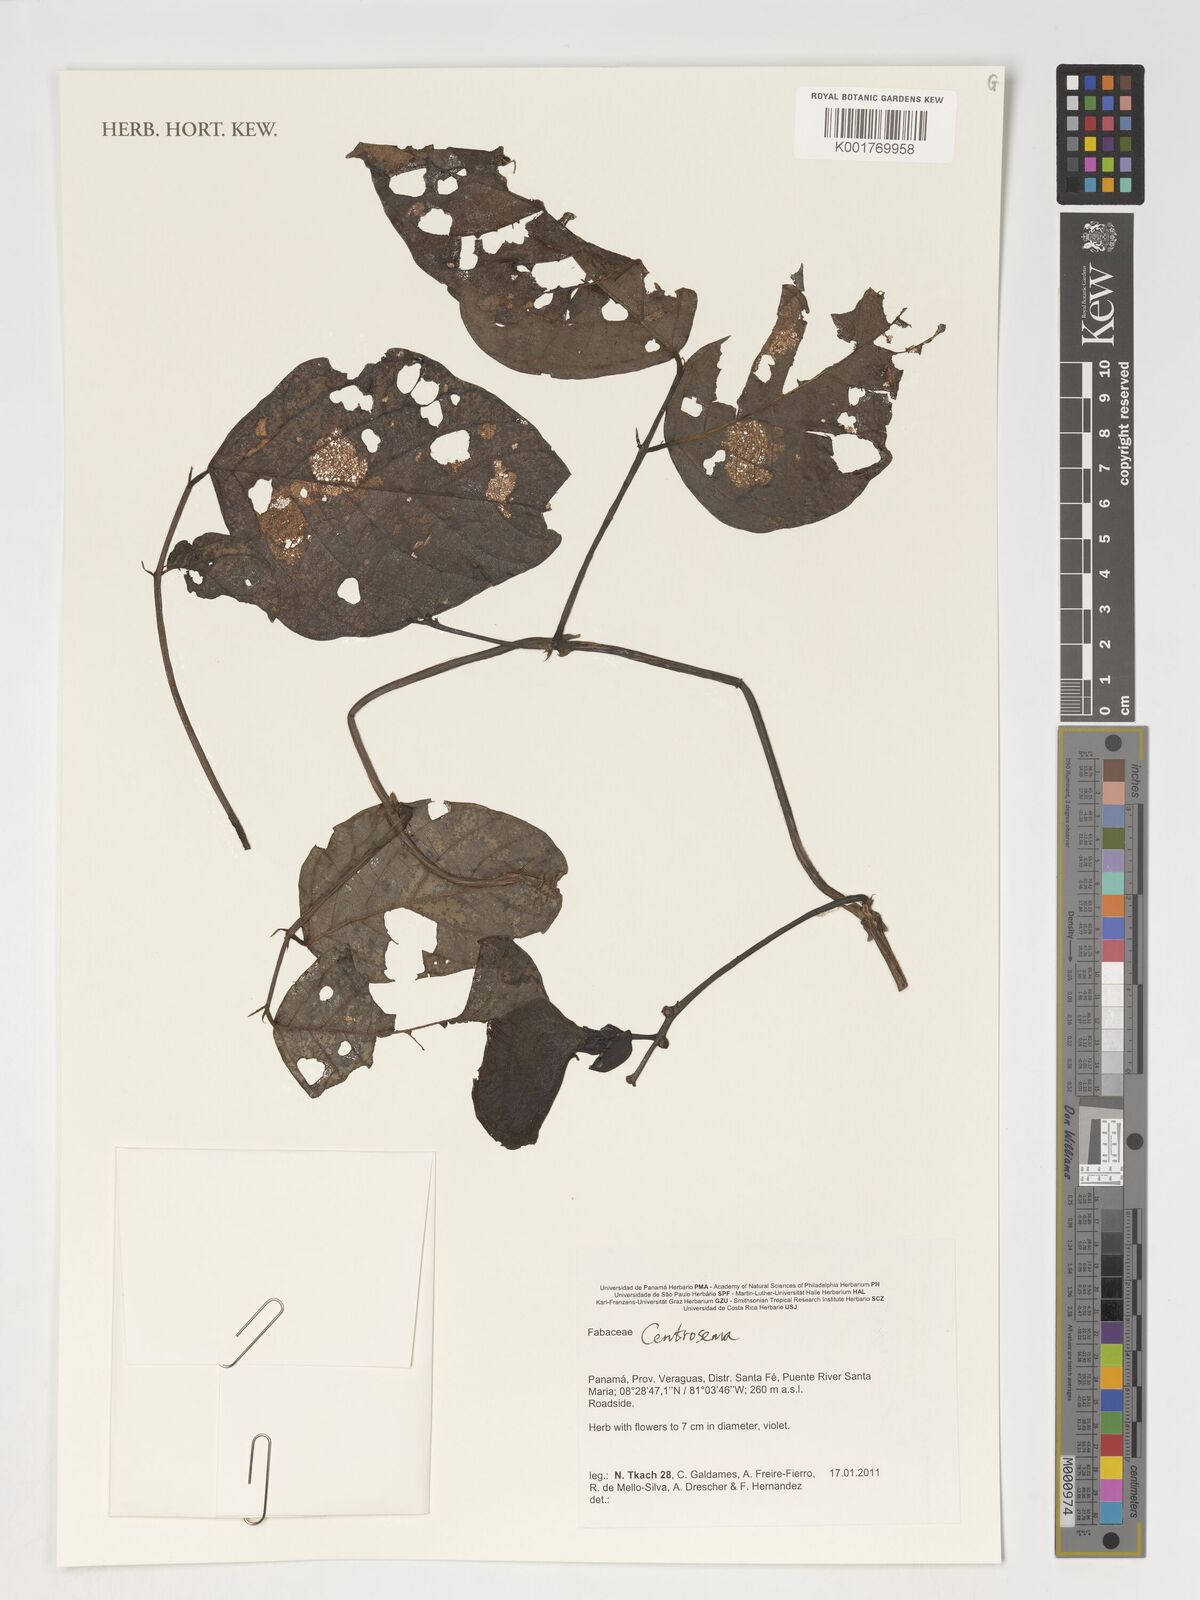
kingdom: Plantae
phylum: Tracheophyta
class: Magnoliopsida
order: Fabales
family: Fabaceae
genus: Centrosema
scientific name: Centrosema
